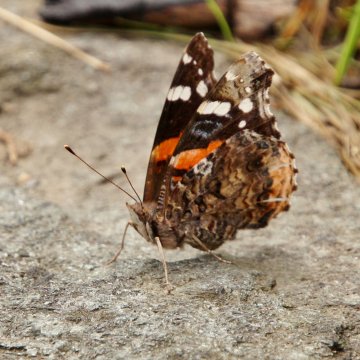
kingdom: Animalia
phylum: Arthropoda
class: Insecta
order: Lepidoptera
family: Nymphalidae
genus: Vanessa
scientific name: Vanessa atalanta
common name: Red Admiral
